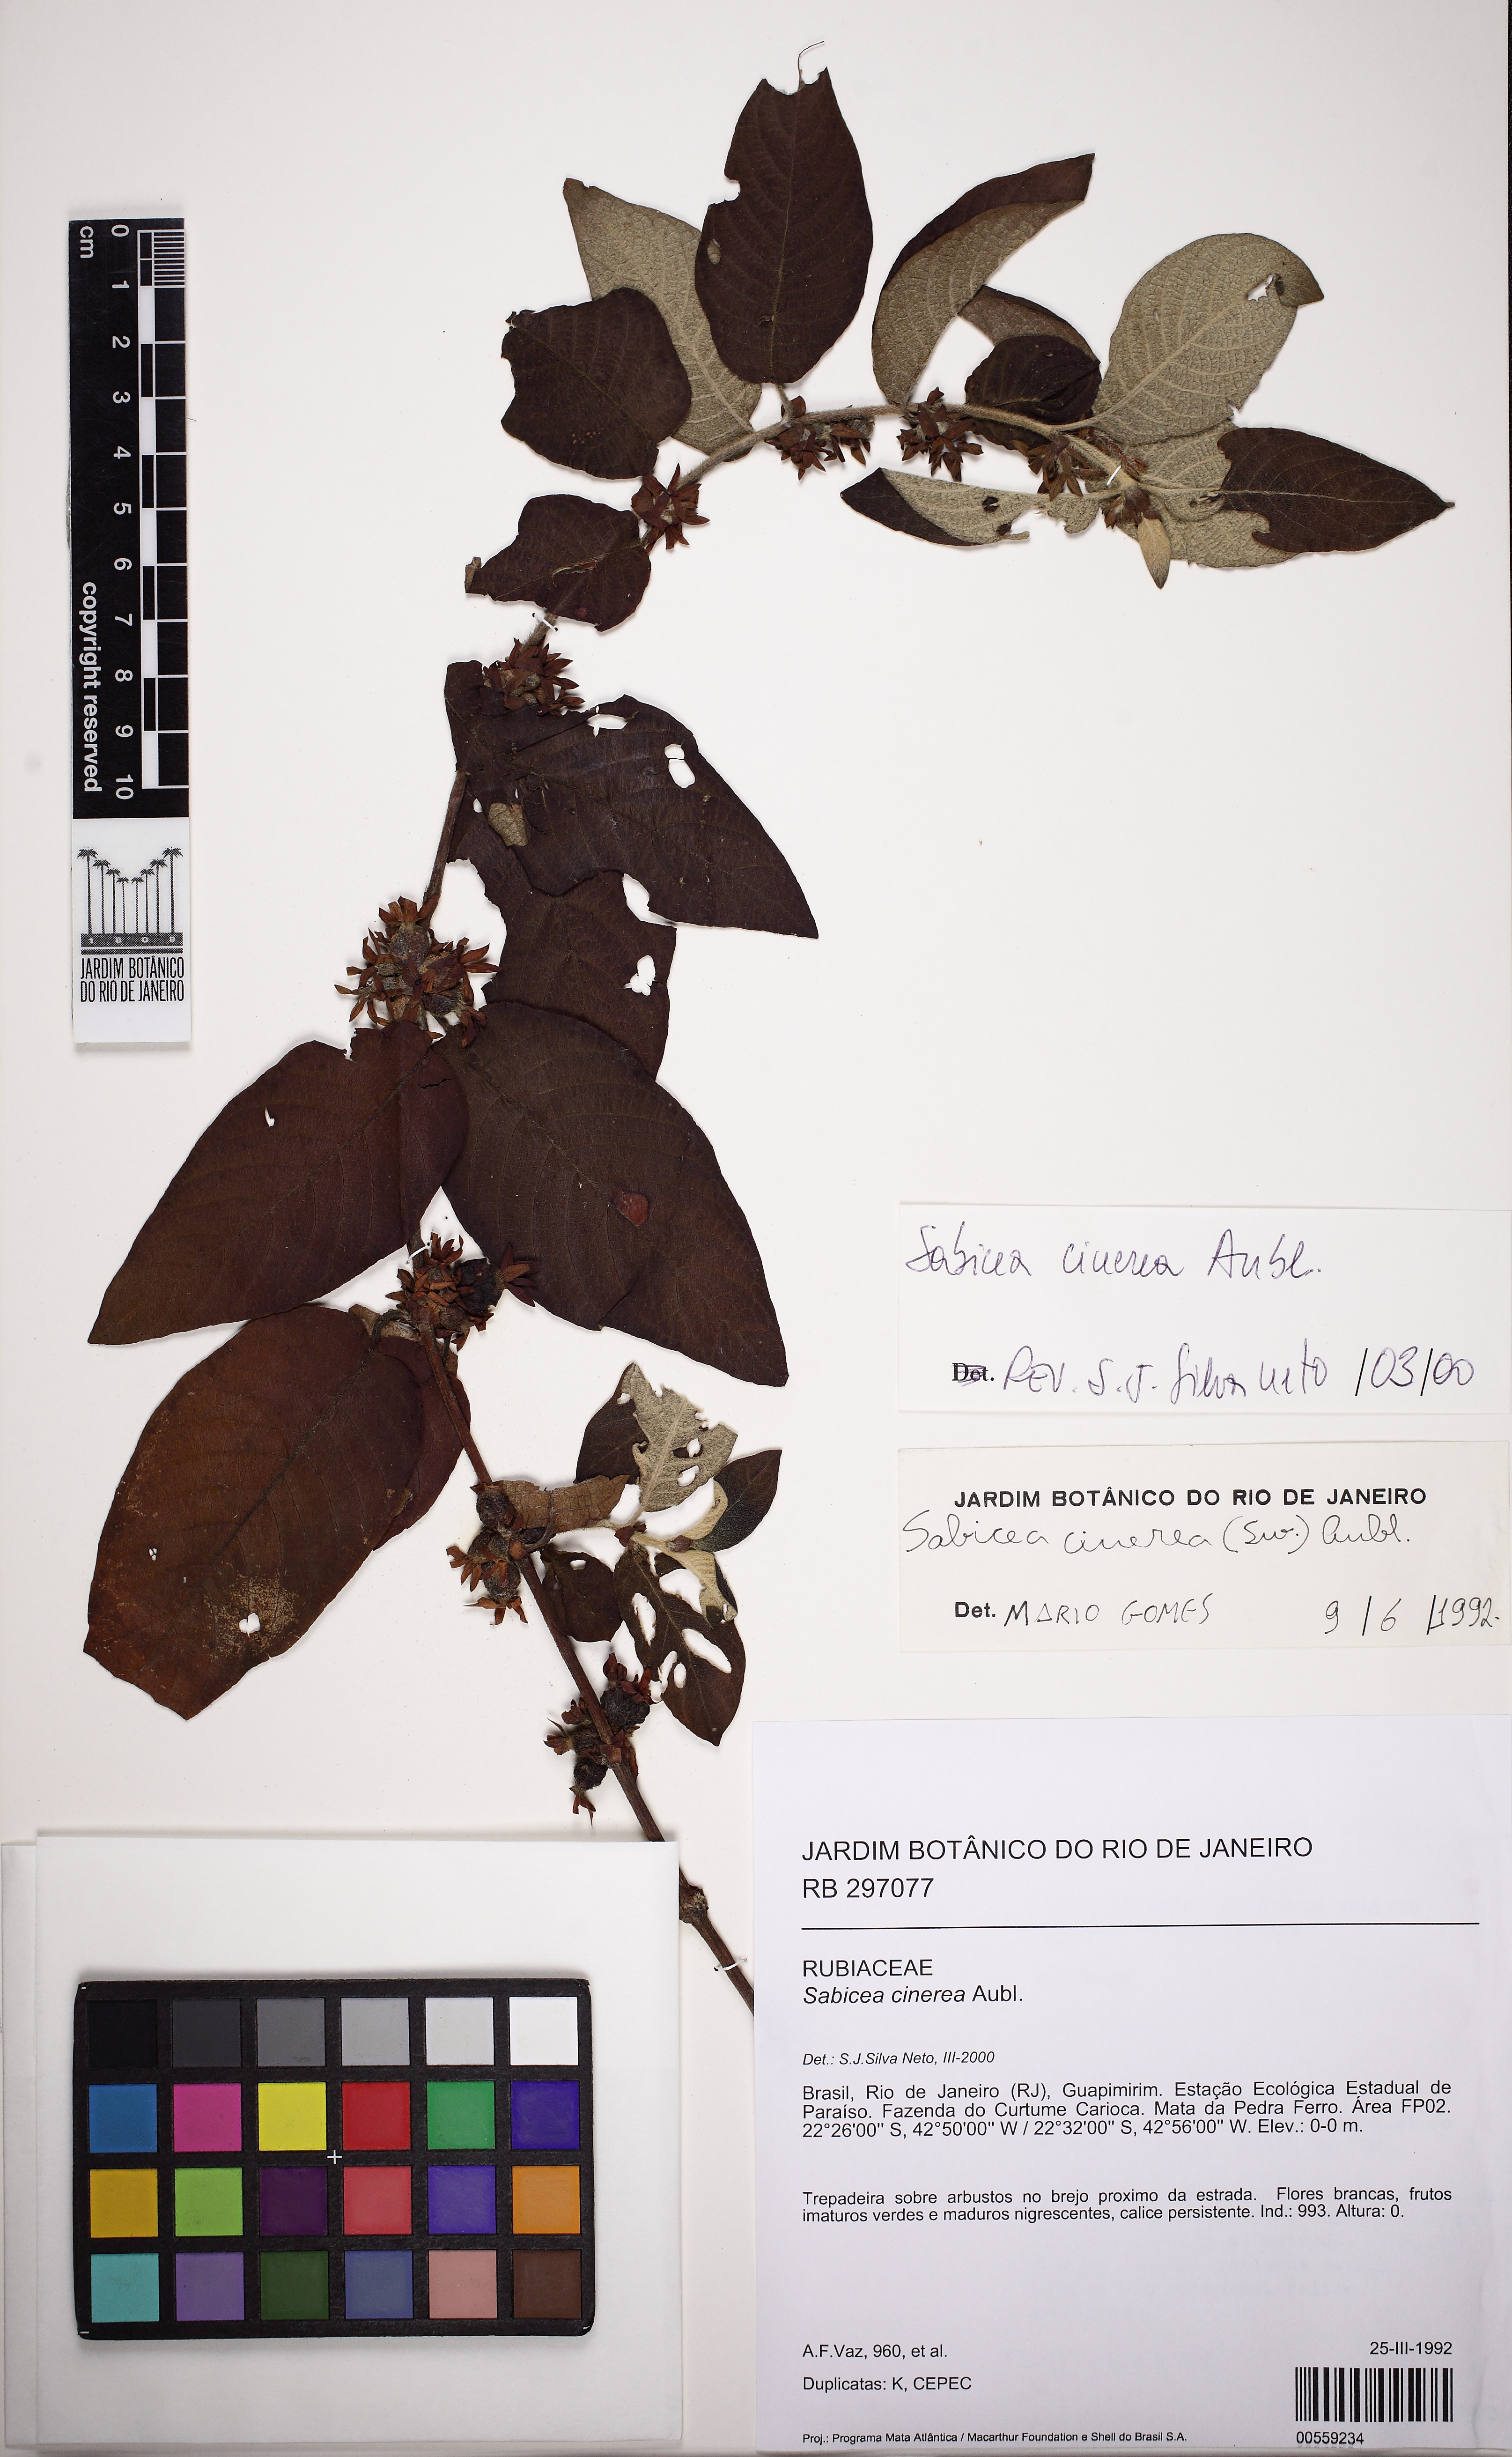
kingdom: Plantae
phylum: Tracheophyta
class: Magnoliopsida
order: Gentianales
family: Rubiaceae
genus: Sabicea
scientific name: Sabicea cinerea
